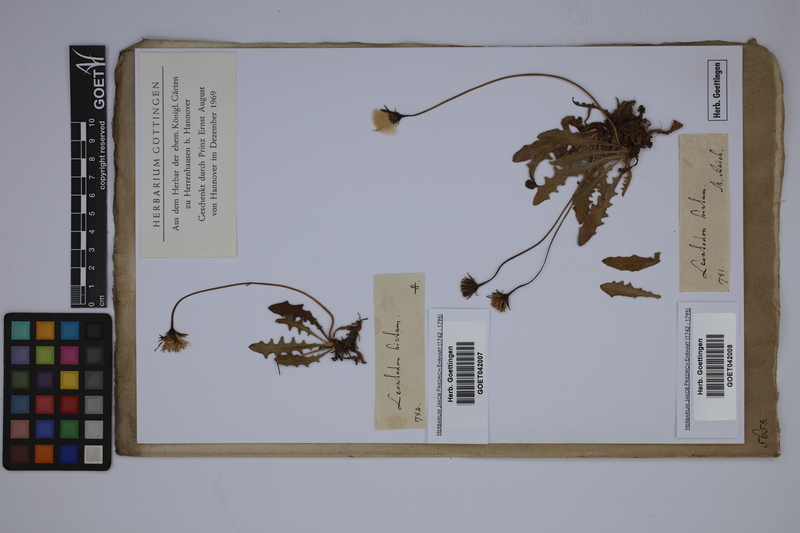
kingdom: Plantae
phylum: Tracheophyta
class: Magnoliopsida
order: Asterales
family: Asteraceae
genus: Leontodon
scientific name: Leontodon hirtum
